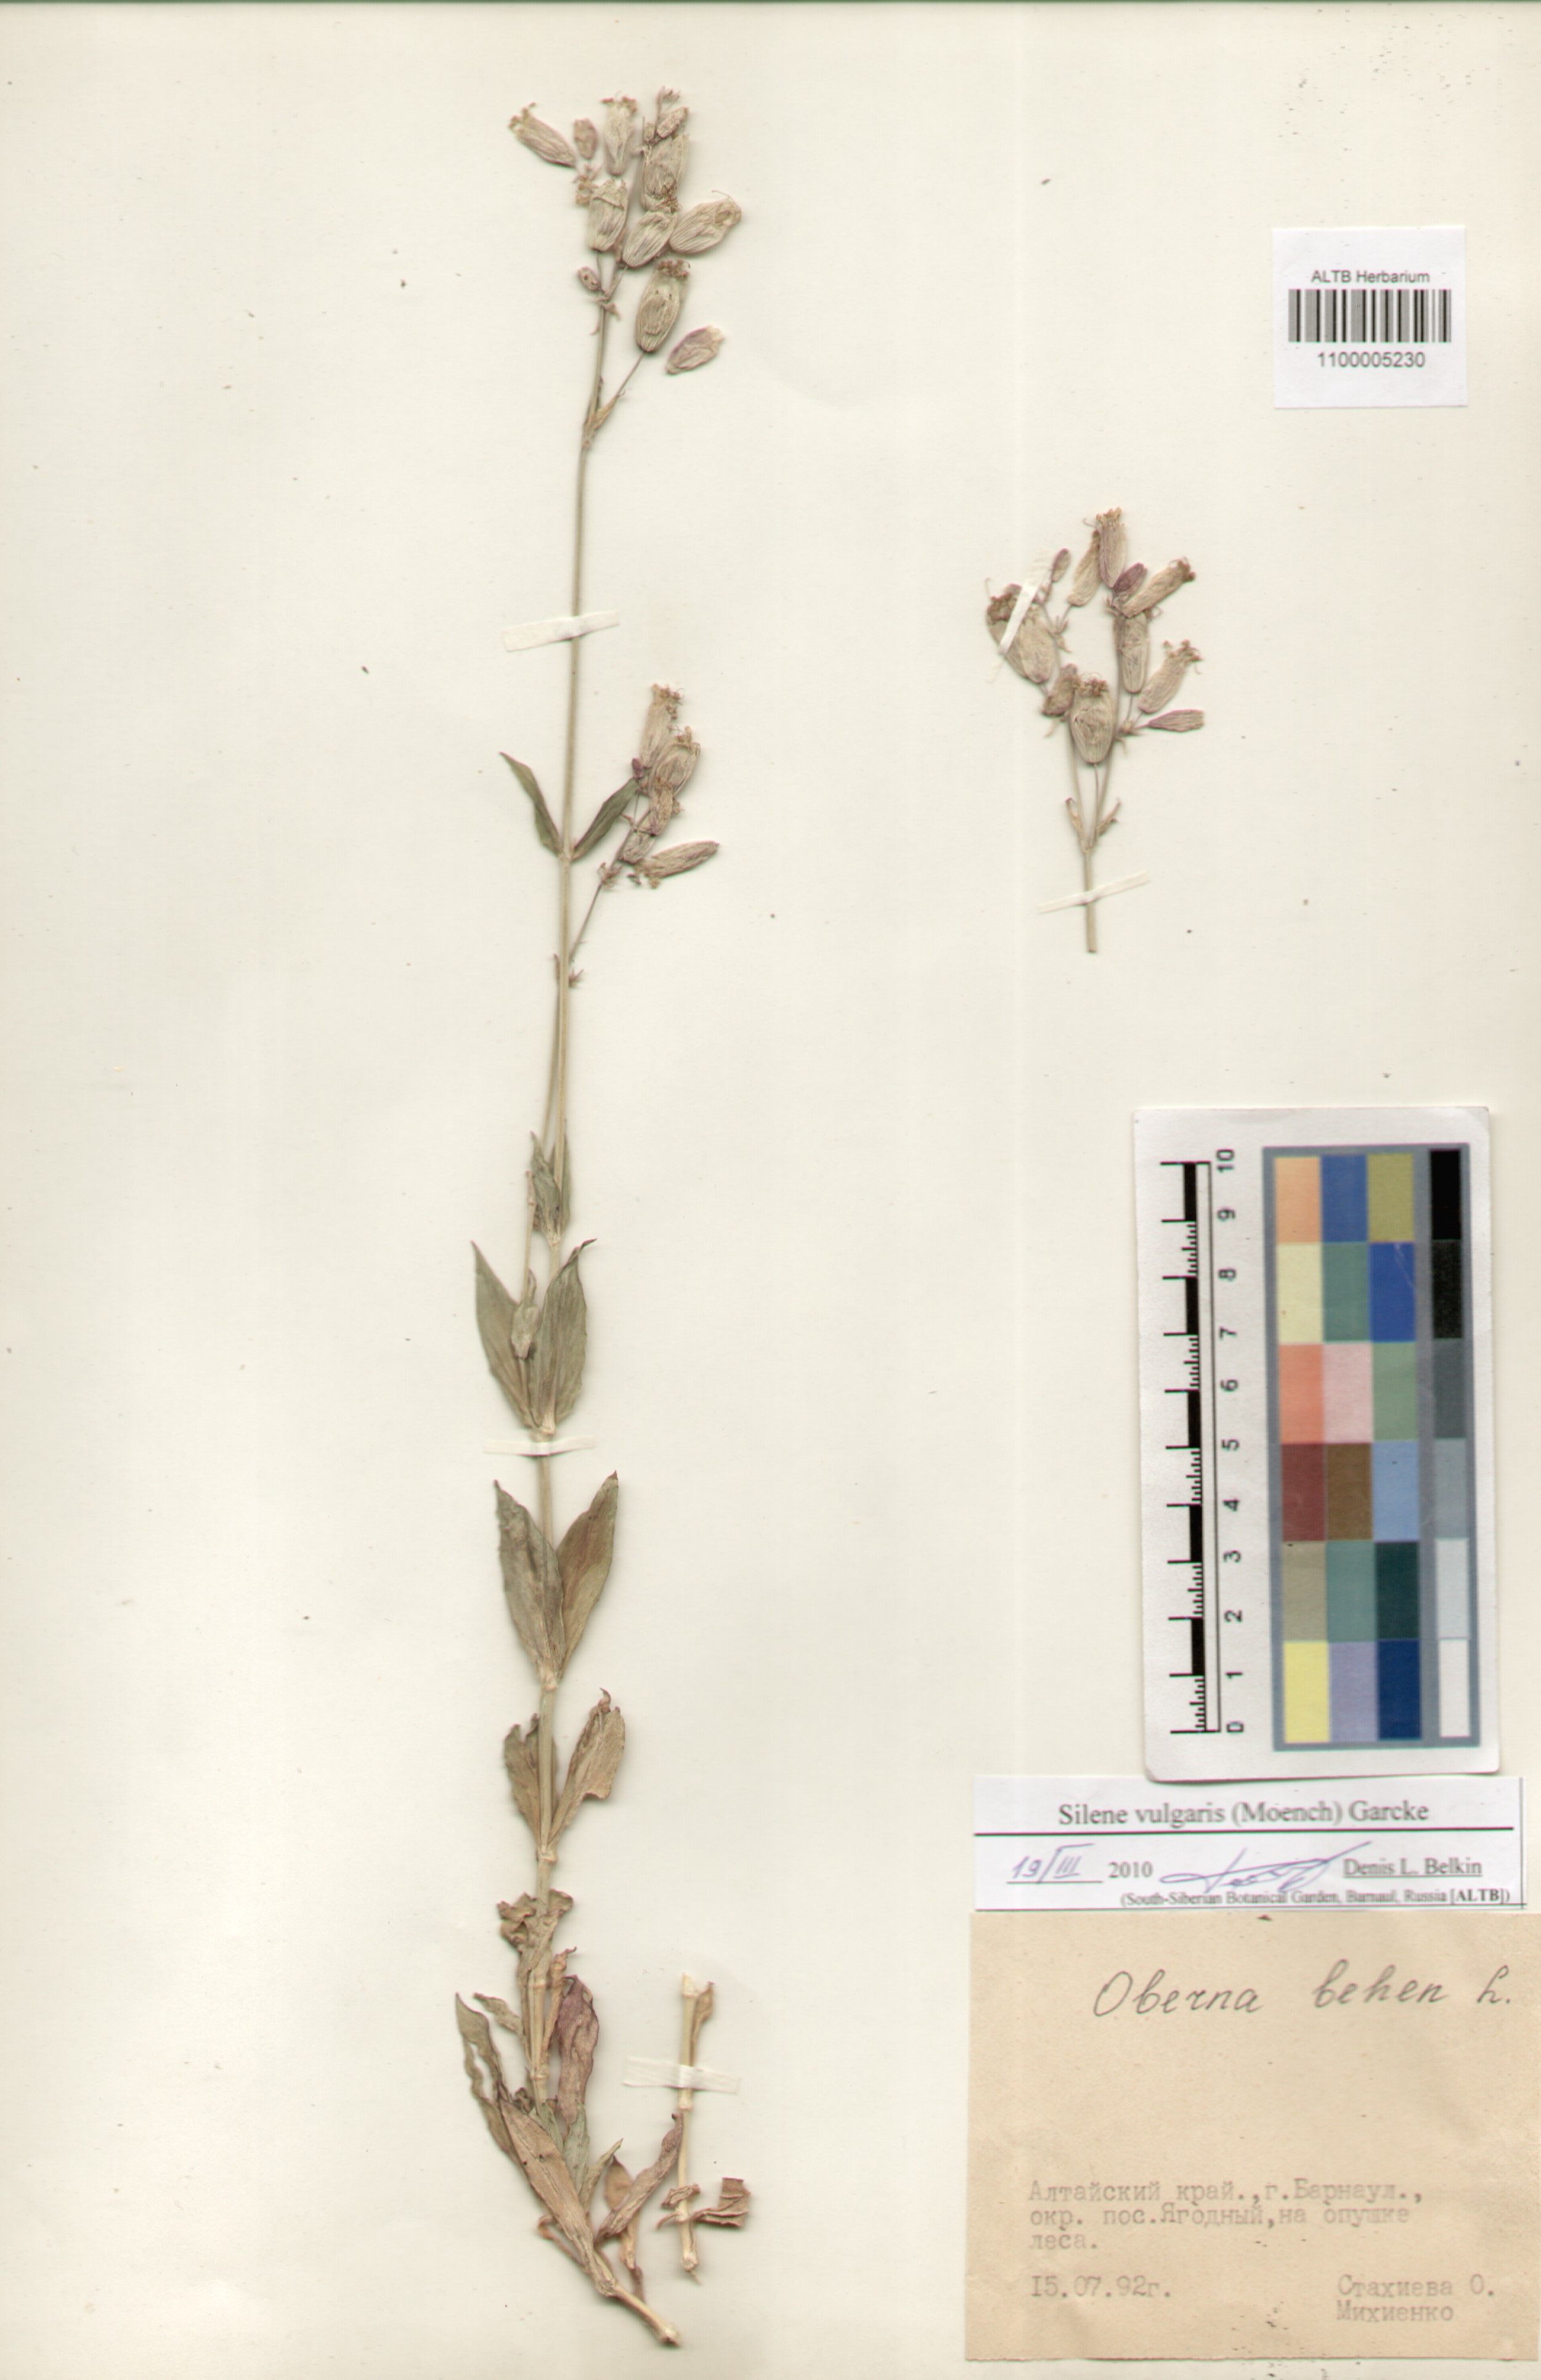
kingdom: Plantae
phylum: Tracheophyta
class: Magnoliopsida
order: Caryophyllales
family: Caryophyllaceae
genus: Silene
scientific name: Silene vulgaris
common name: Bladder campion
